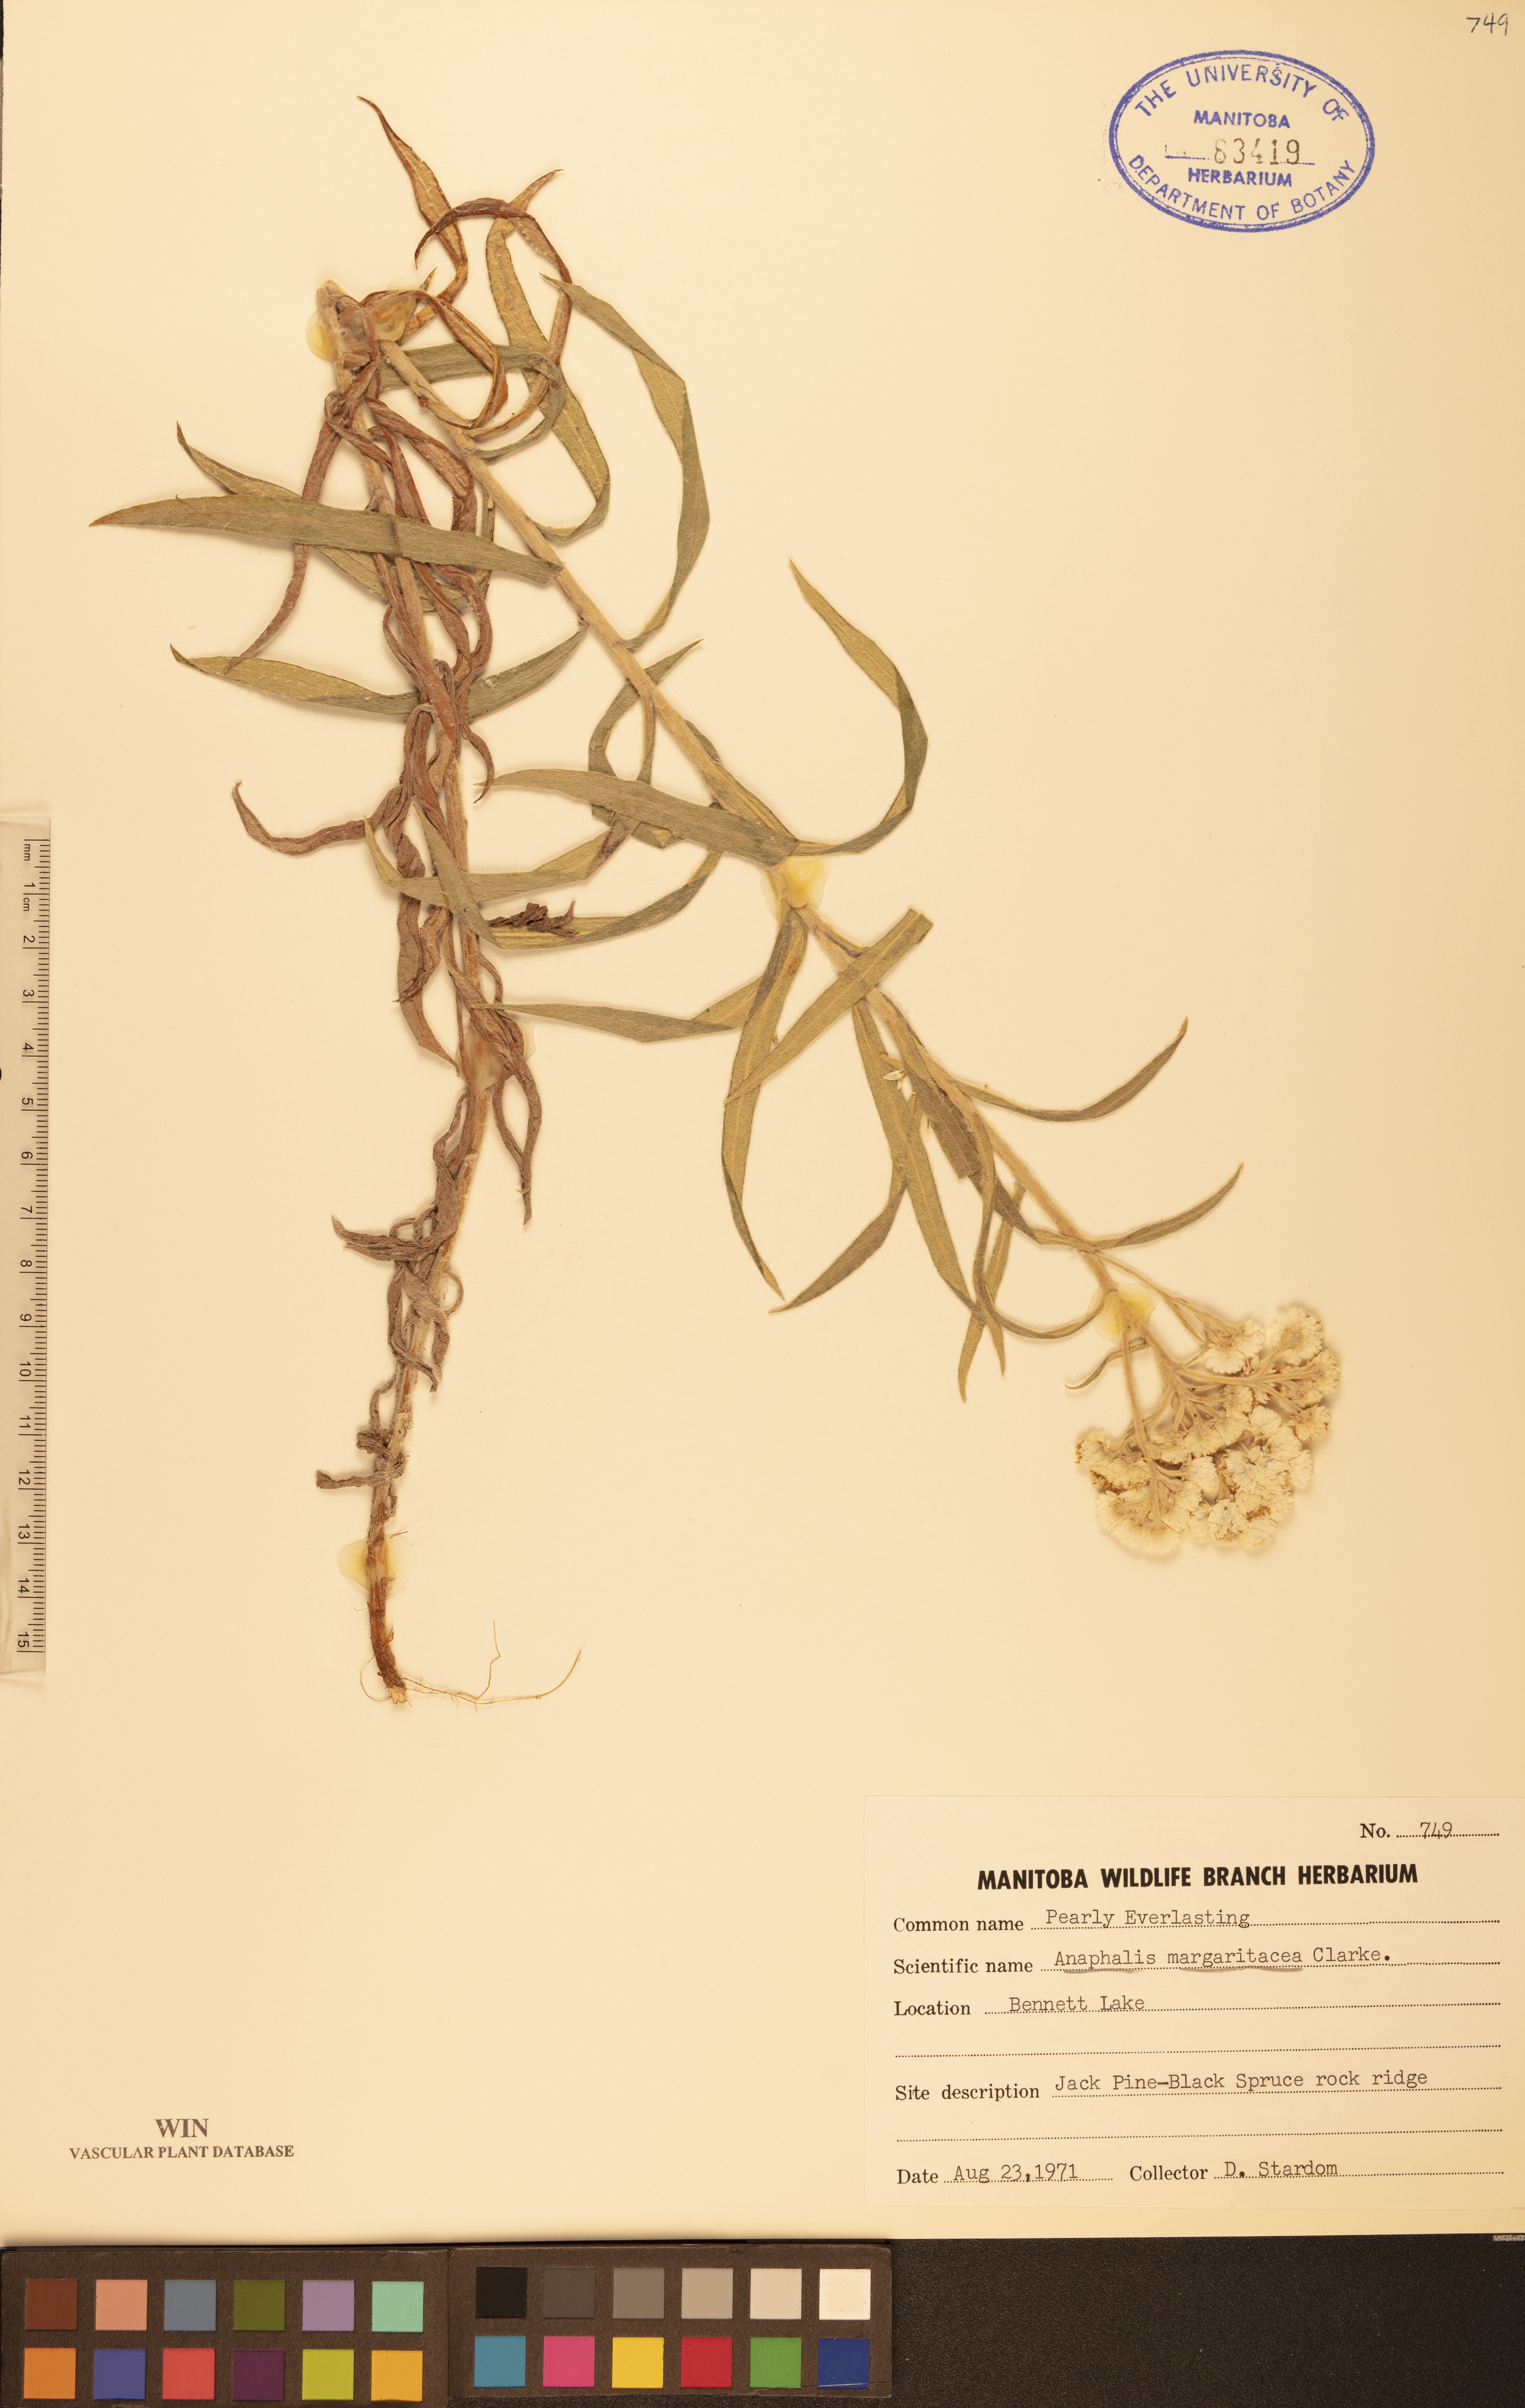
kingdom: Plantae
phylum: Tracheophyta
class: Magnoliopsida
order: Asterales
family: Asteraceae
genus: Anaphalis
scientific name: Anaphalis margaritacea
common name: Pearly everlasting
